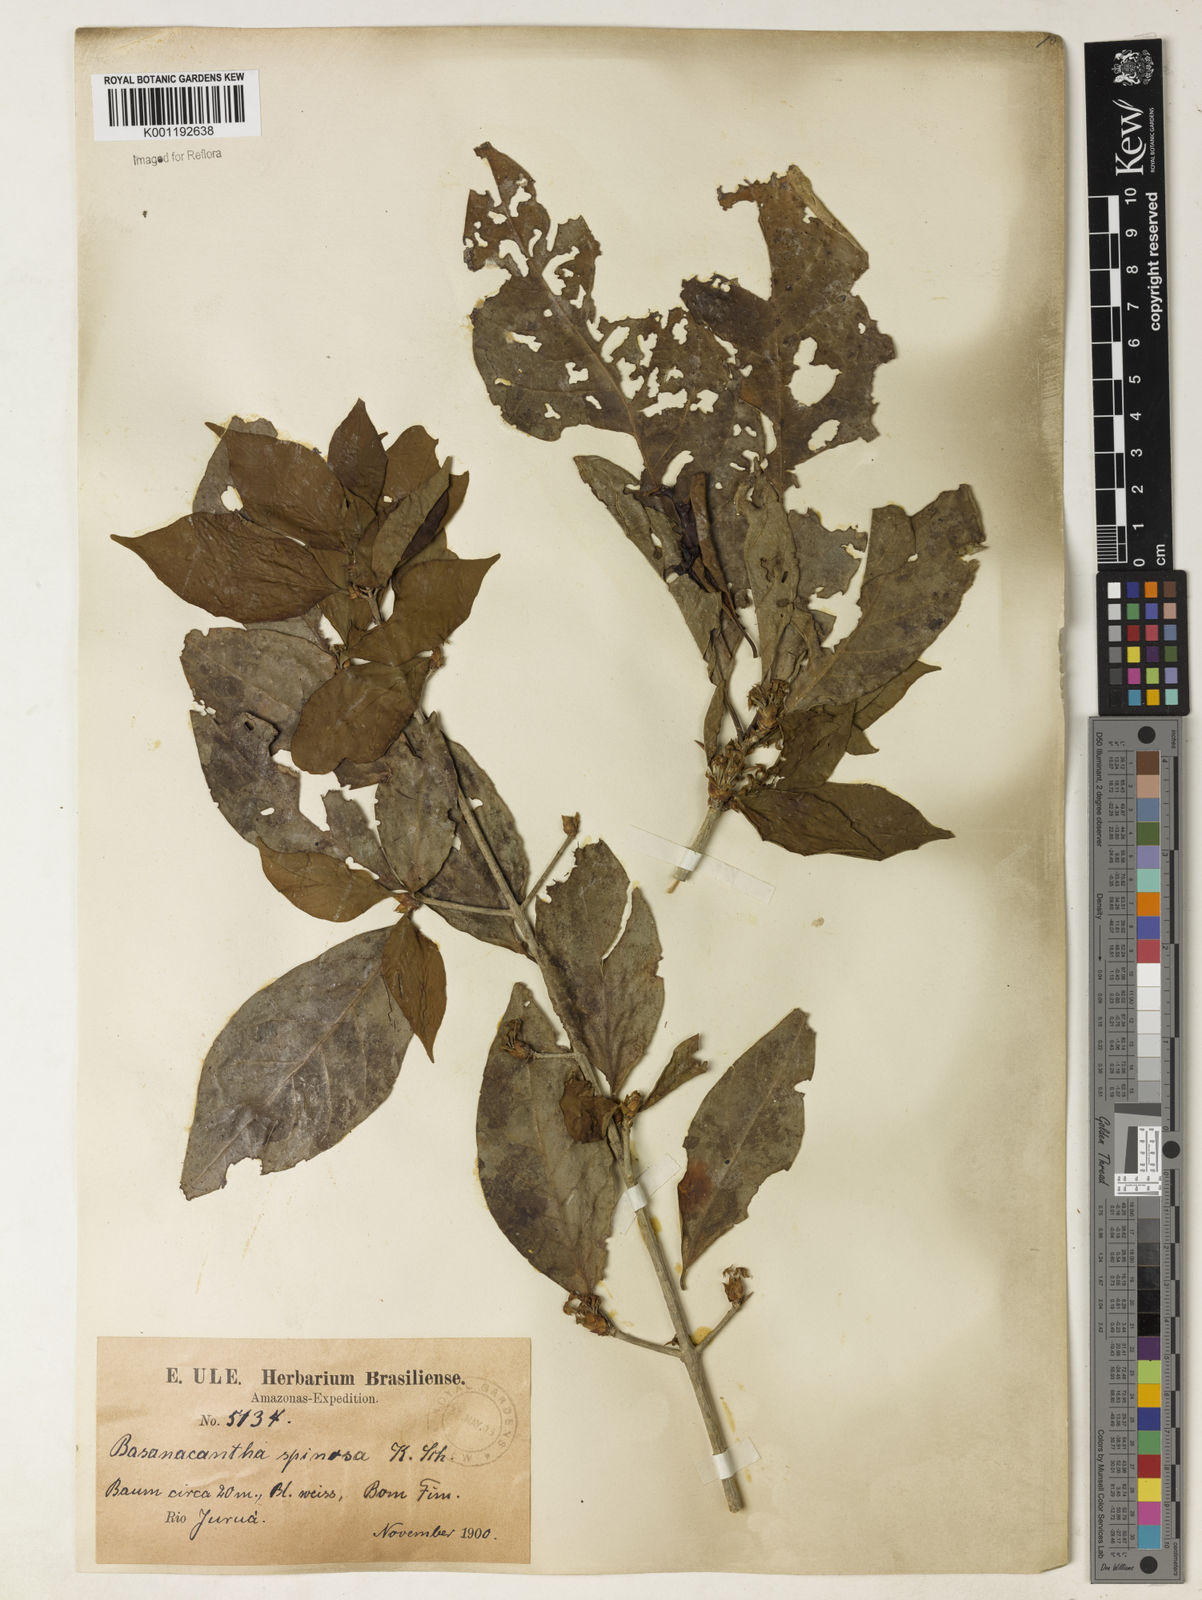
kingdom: Plantae
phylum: Tracheophyta
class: Magnoliopsida
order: Gentianales
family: Rubiaceae
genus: Randia
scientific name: Randia armata
